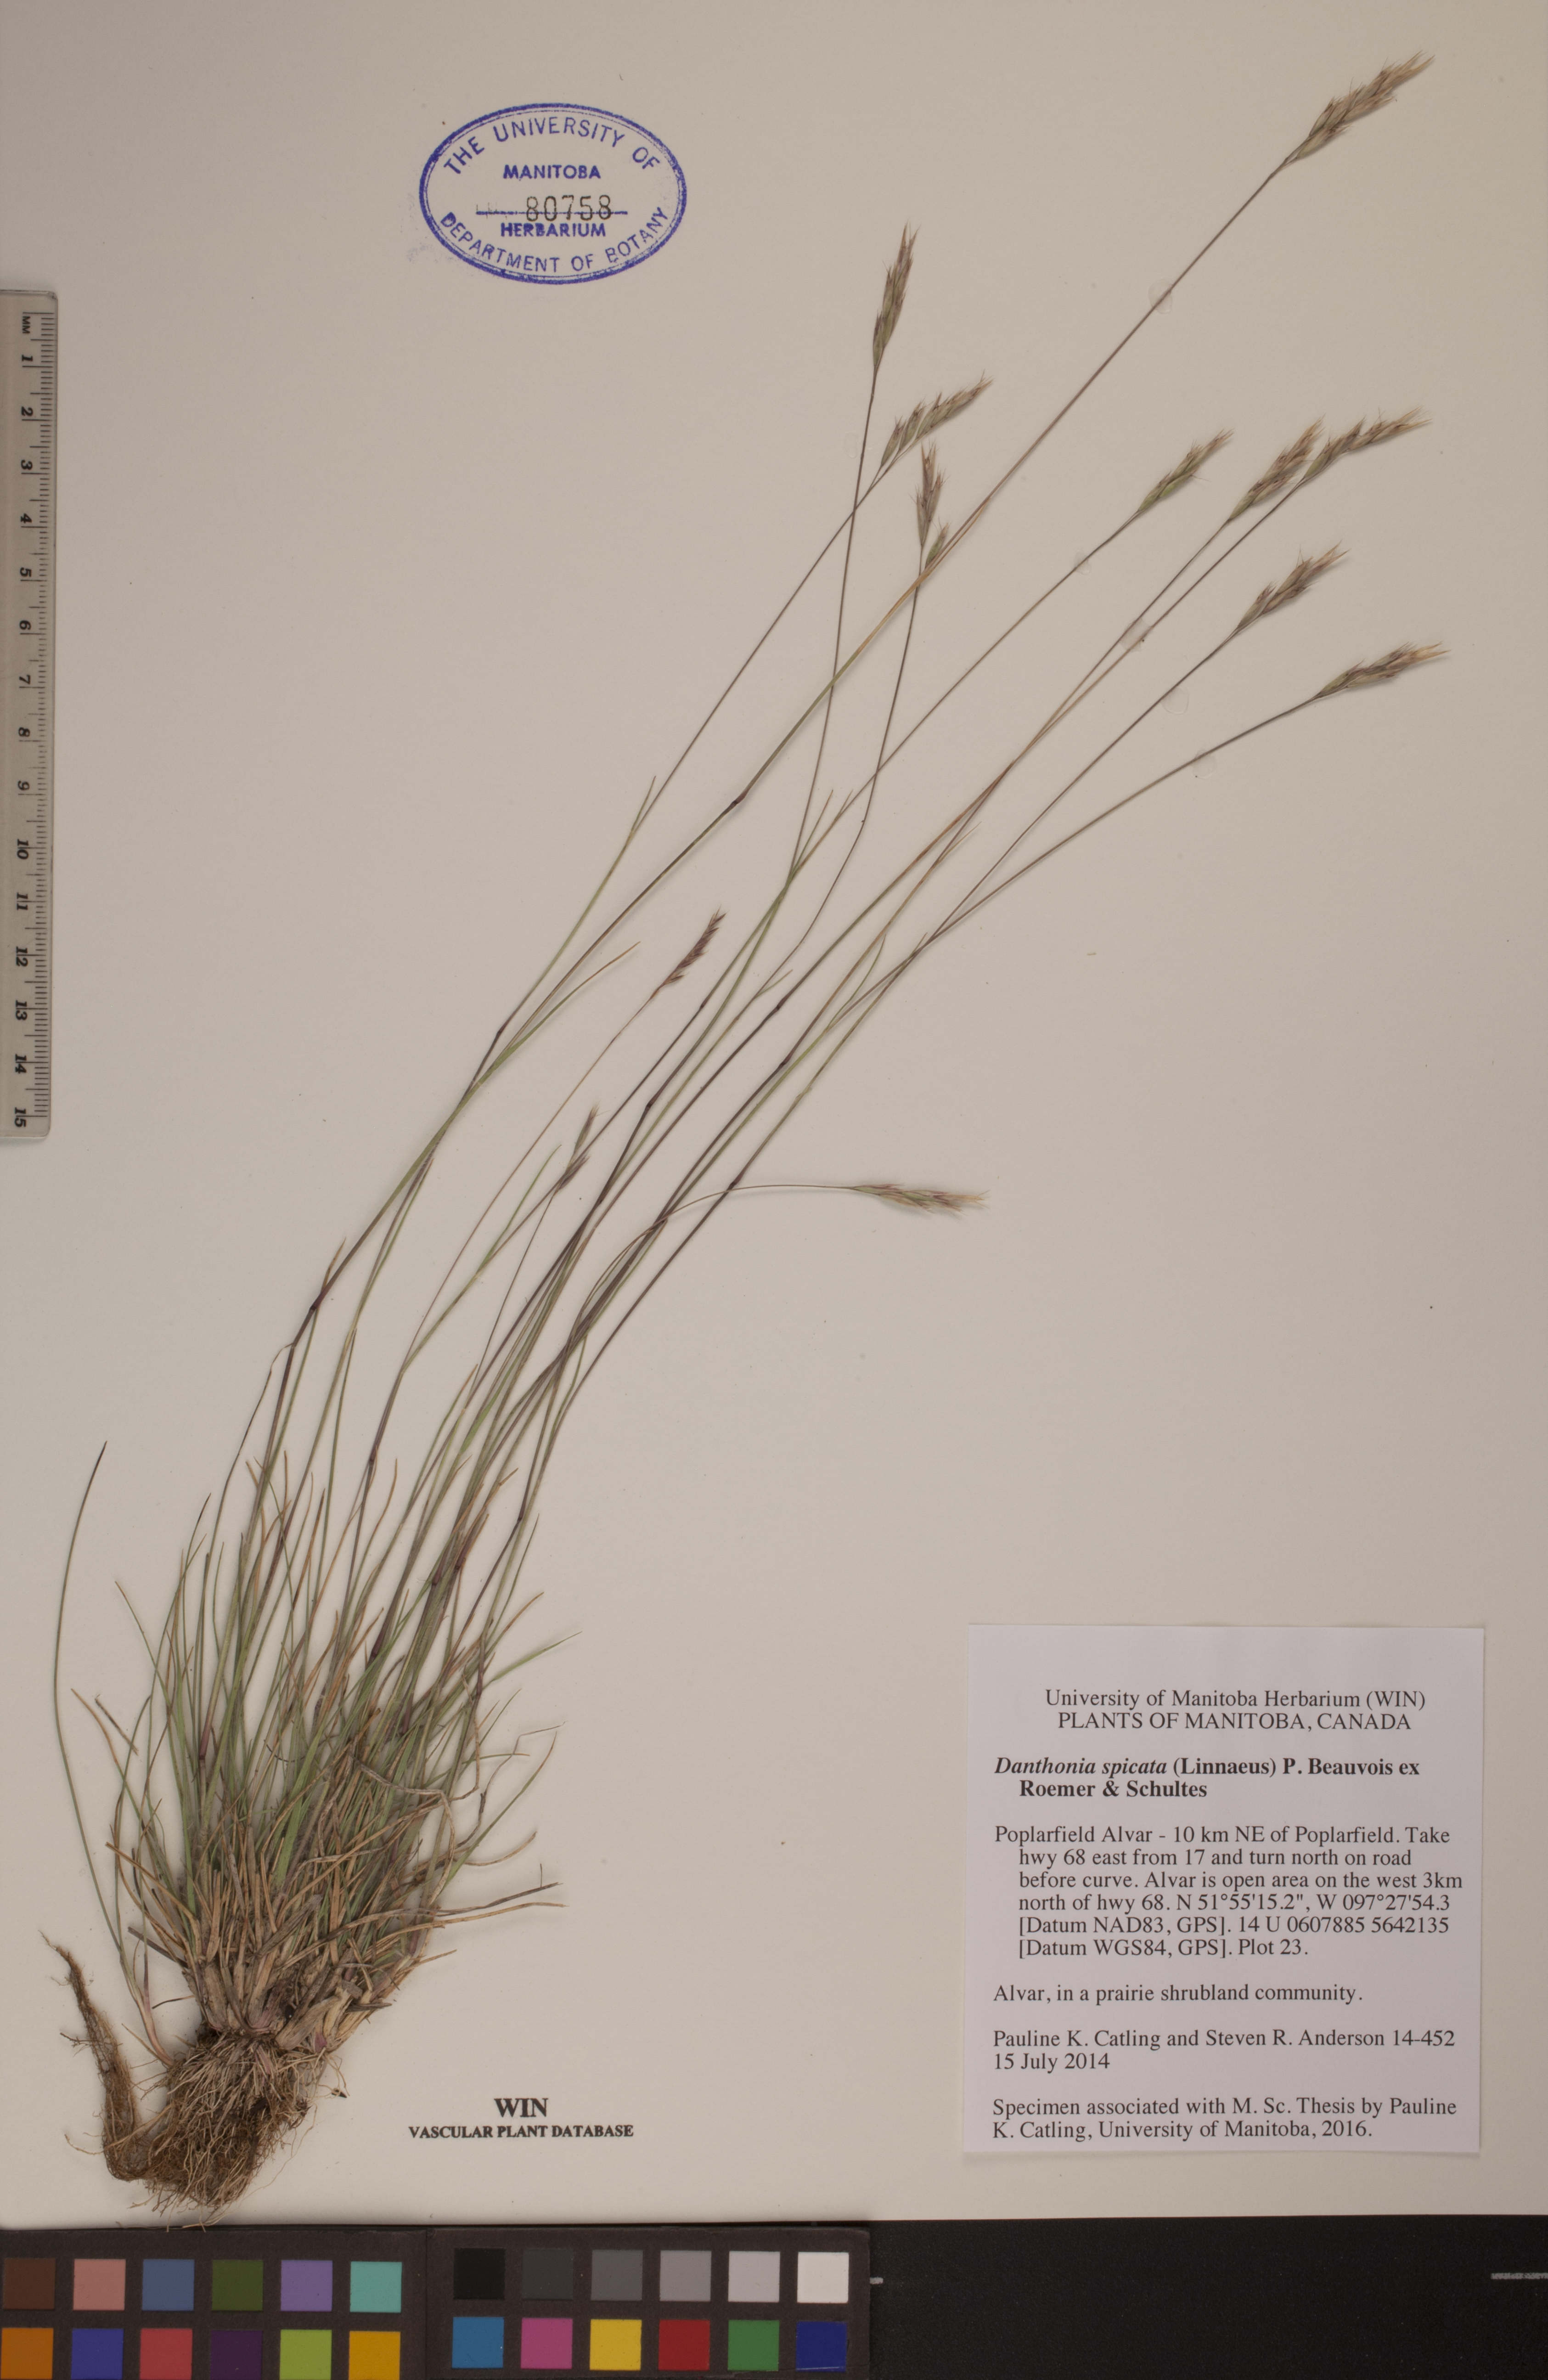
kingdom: Plantae
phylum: Tracheophyta
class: Liliopsida
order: Poales
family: Poaceae
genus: Danthonia
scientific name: Danthonia spicata
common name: Common wild oatgrass
